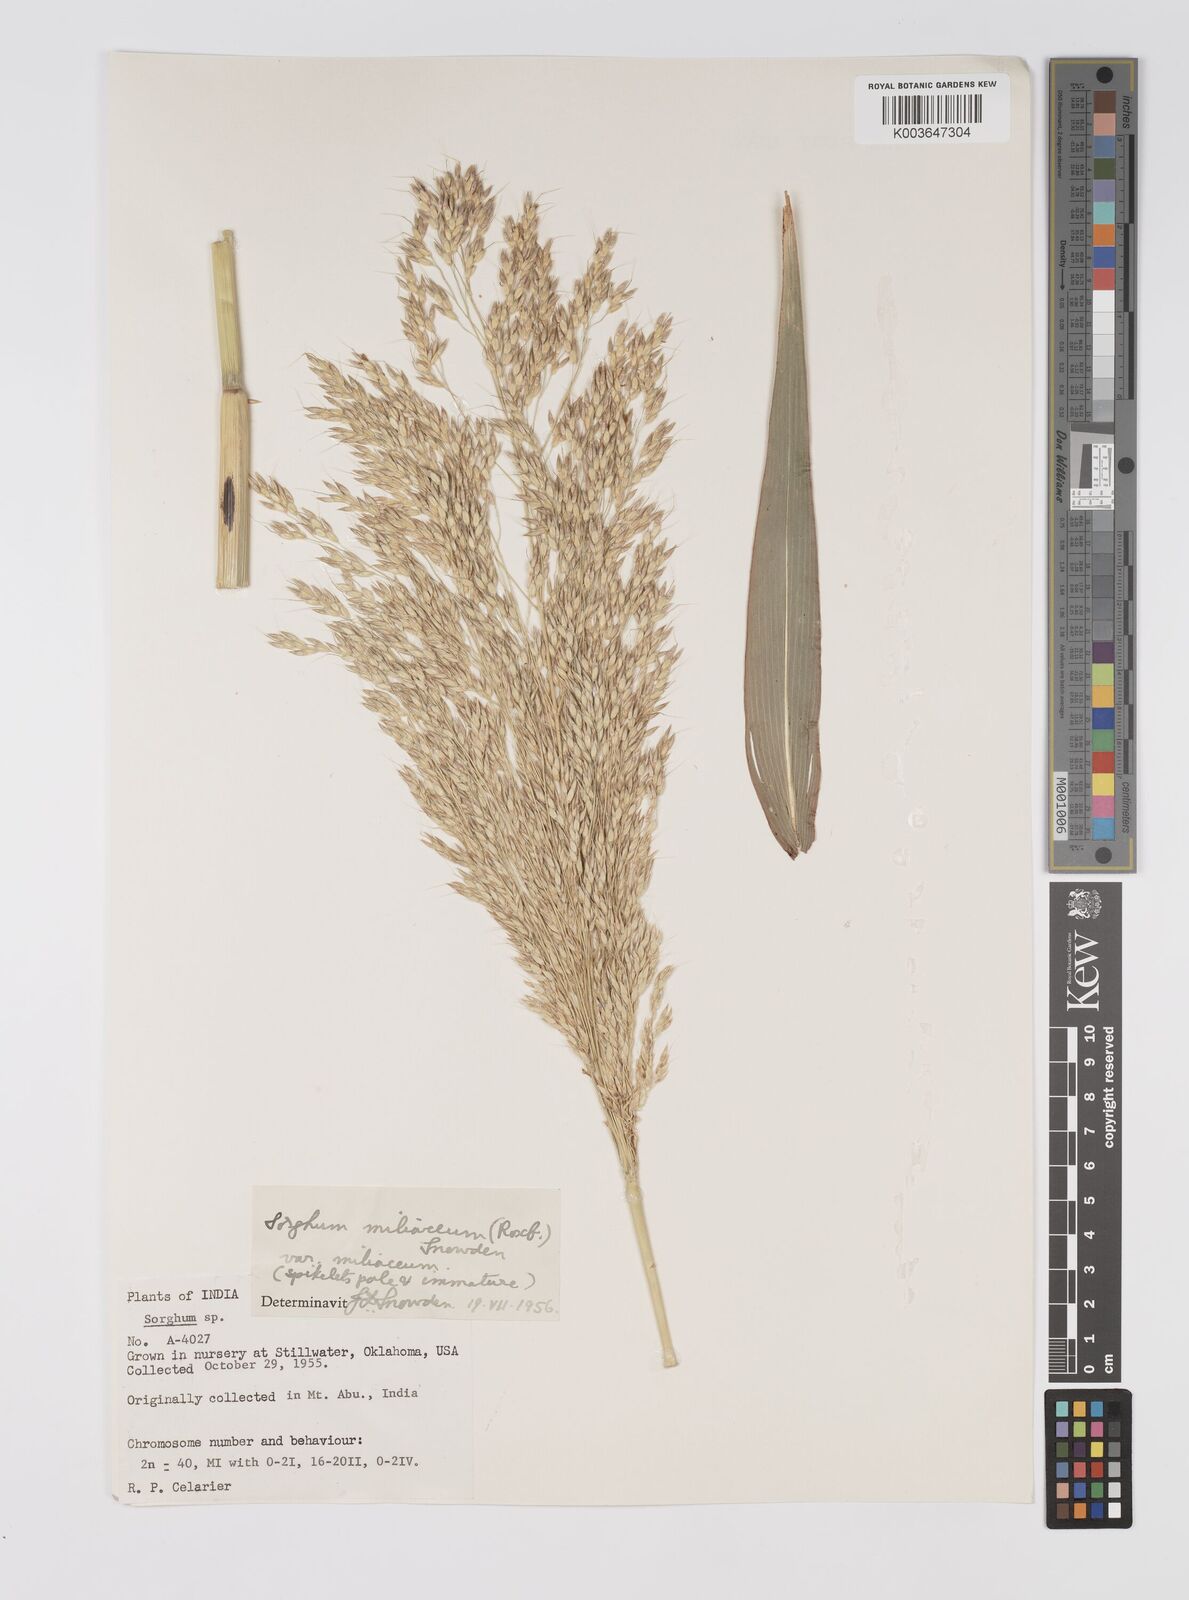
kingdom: Plantae
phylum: Tracheophyta
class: Liliopsida
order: Poales
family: Poaceae
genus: Sorghum
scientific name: Sorghum halepense
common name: Johnson-grass
